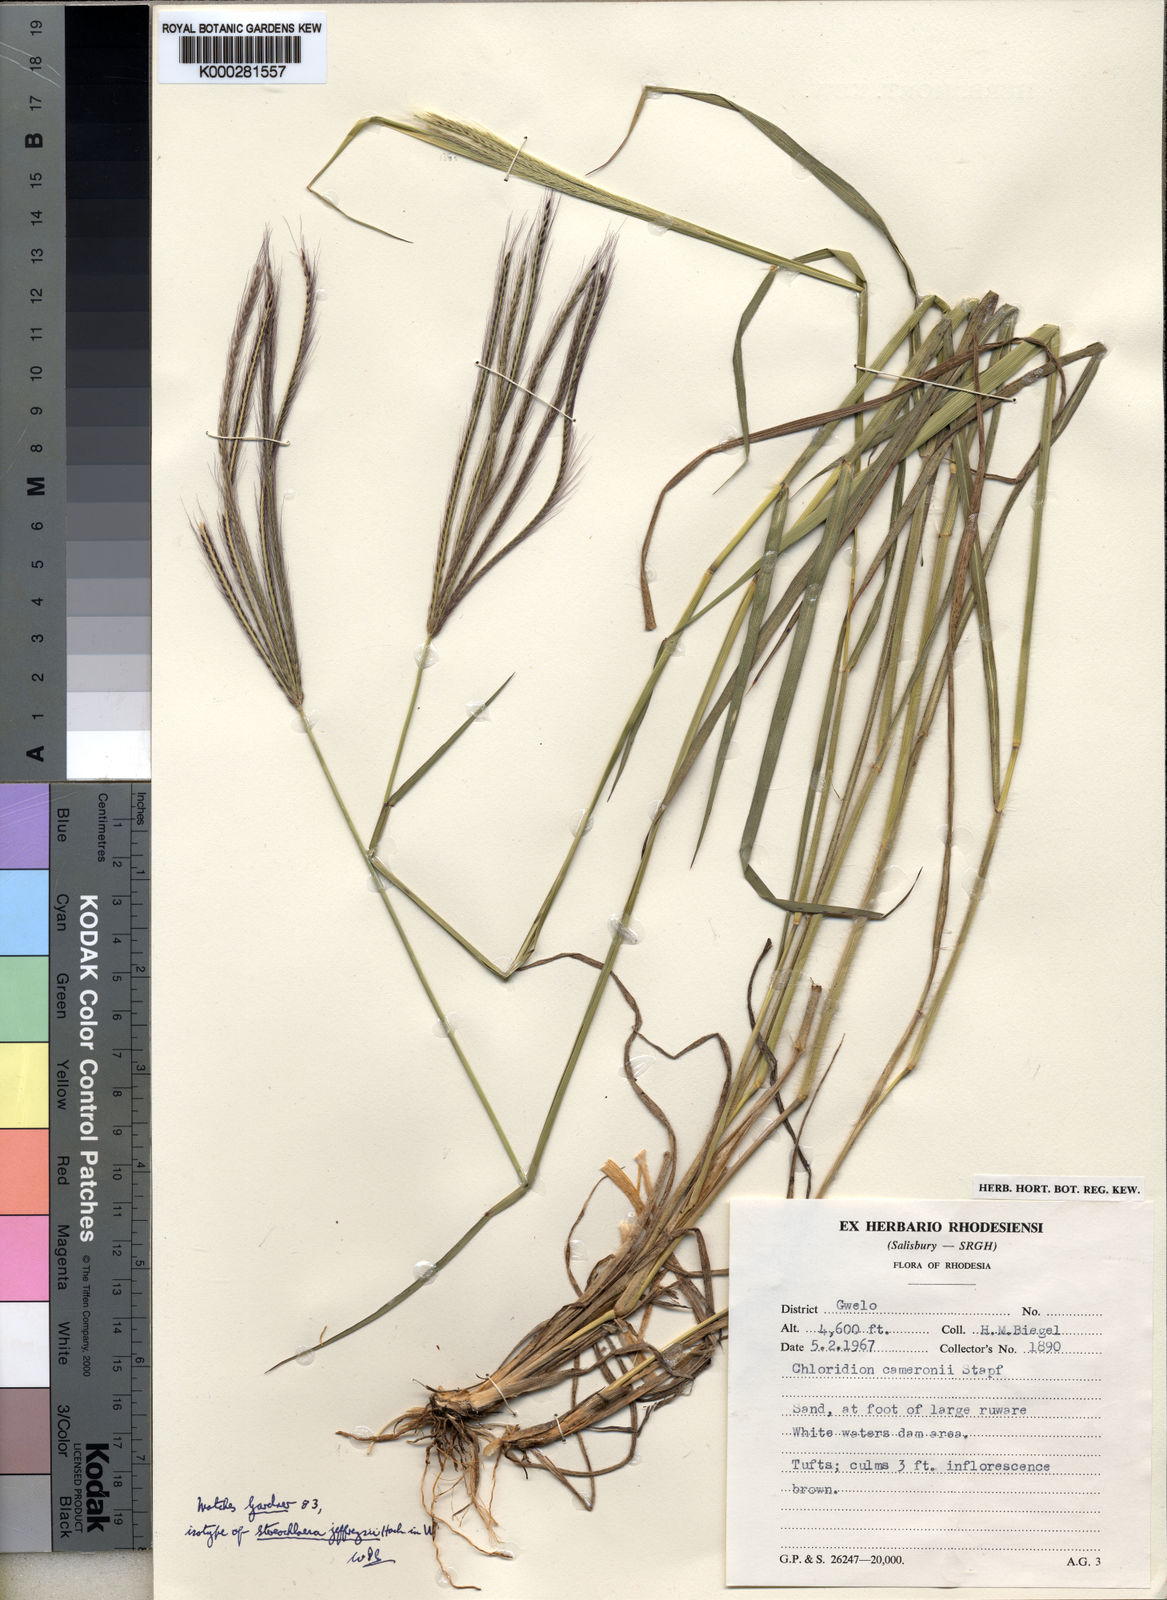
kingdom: Plantae
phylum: Tracheophyta
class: Liliopsida
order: Poales
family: Poaceae
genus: Stereochlaena
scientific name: Stereochlaena cameronii
